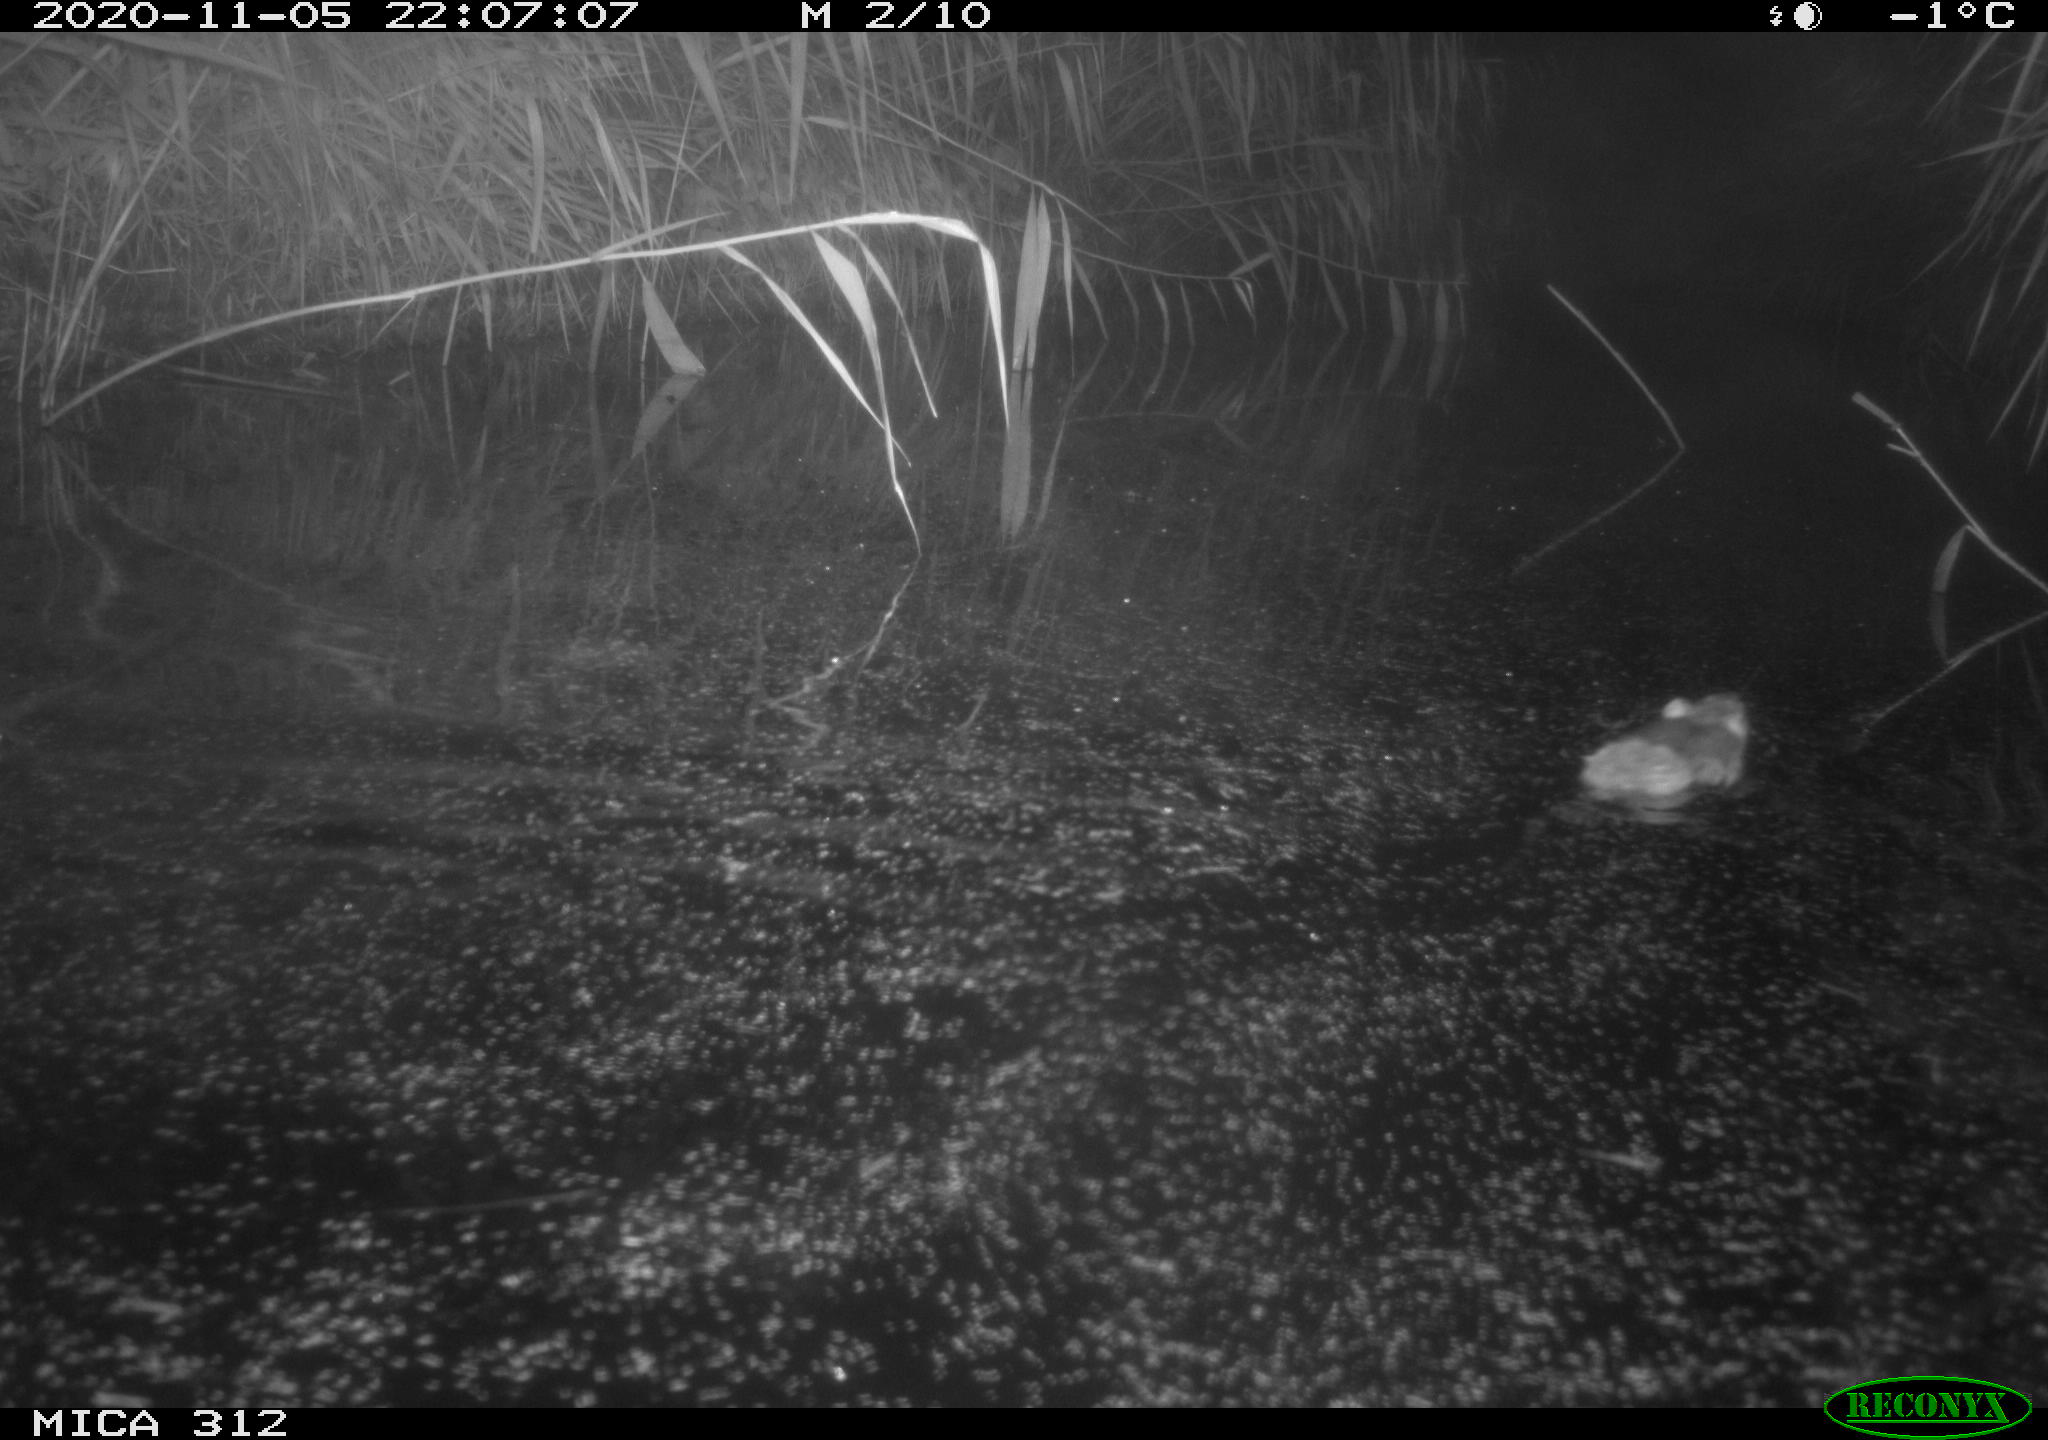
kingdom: Animalia
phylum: Chordata
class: Mammalia
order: Rodentia
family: Muridae
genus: Rattus
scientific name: Rattus norvegicus
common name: Brown rat
